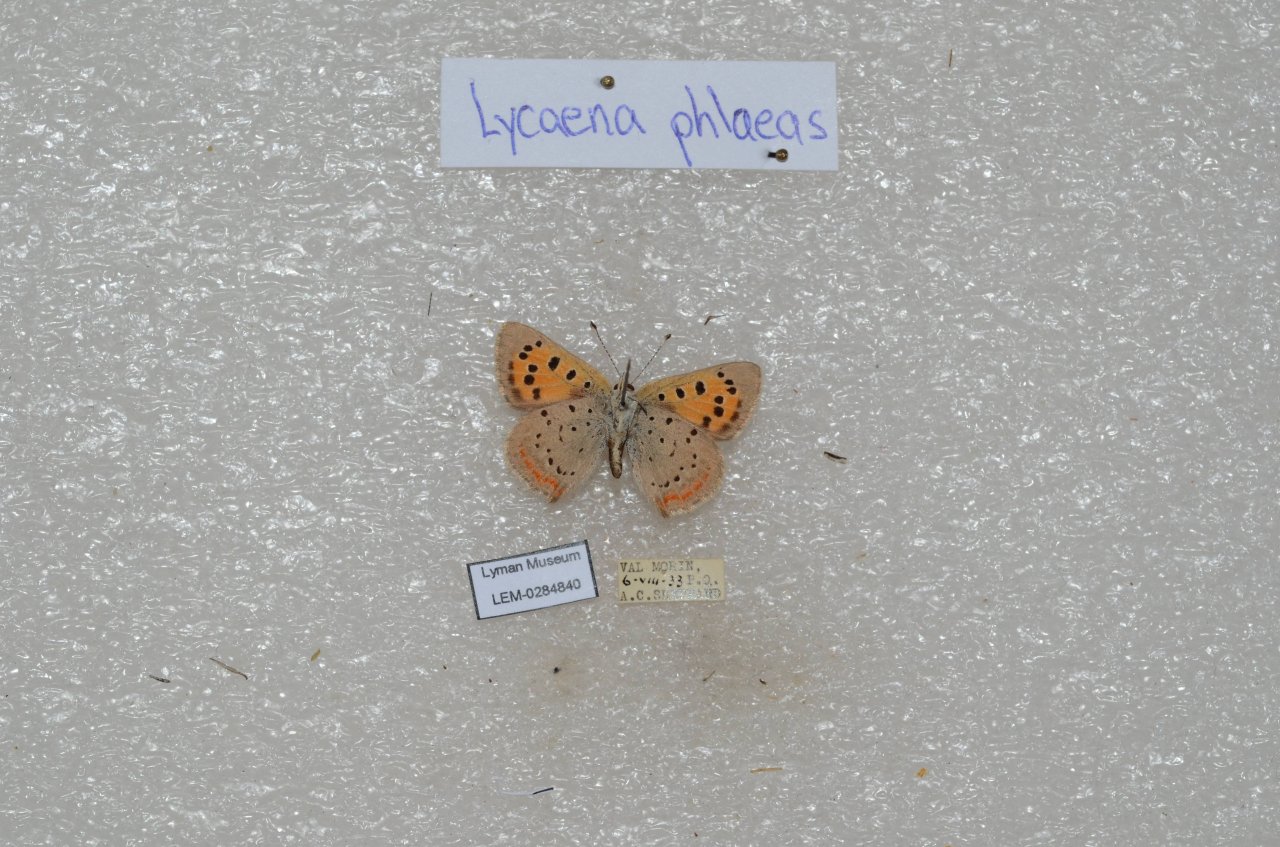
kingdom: Animalia
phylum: Arthropoda
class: Insecta
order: Lepidoptera
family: Lycaenidae
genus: Lycaena
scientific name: Lycaena phlaeas
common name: American Copper
